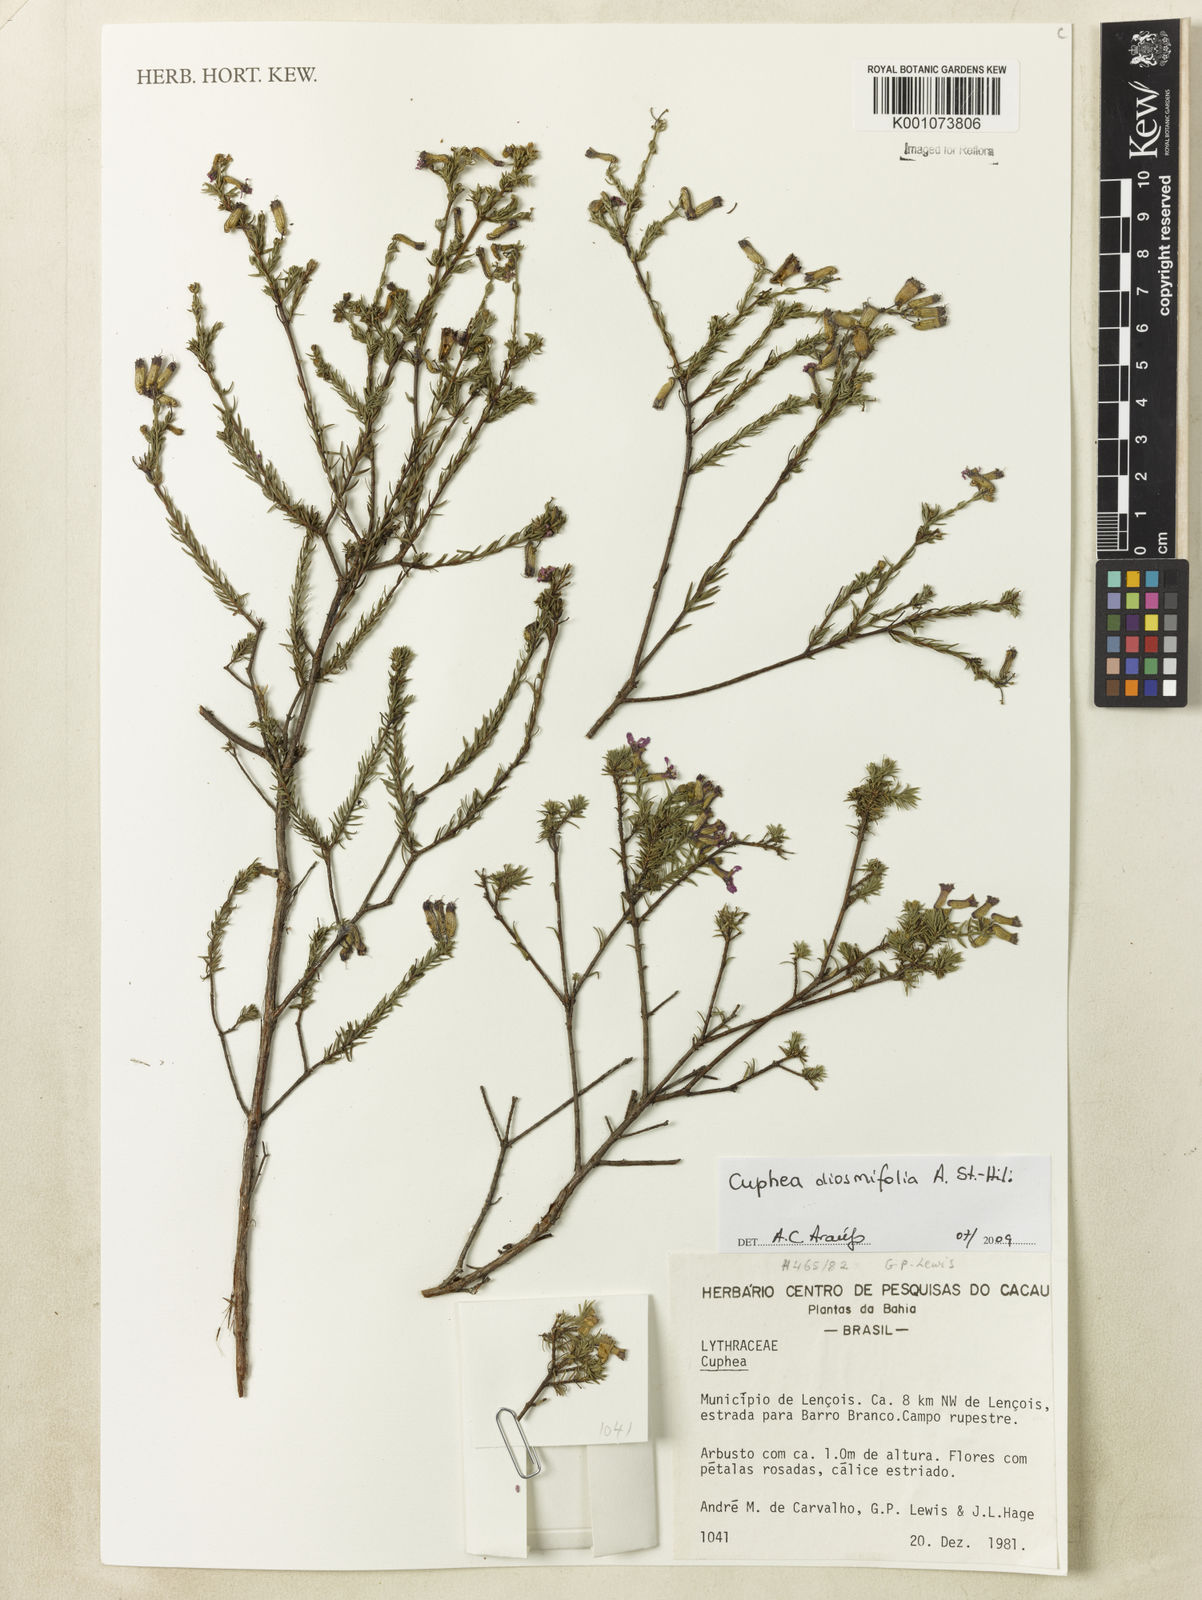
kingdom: Plantae
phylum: Tracheophyta
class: Magnoliopsida
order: Myrtales
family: Lythraceae
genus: Cuphea
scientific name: Cuphea diosmifolia
